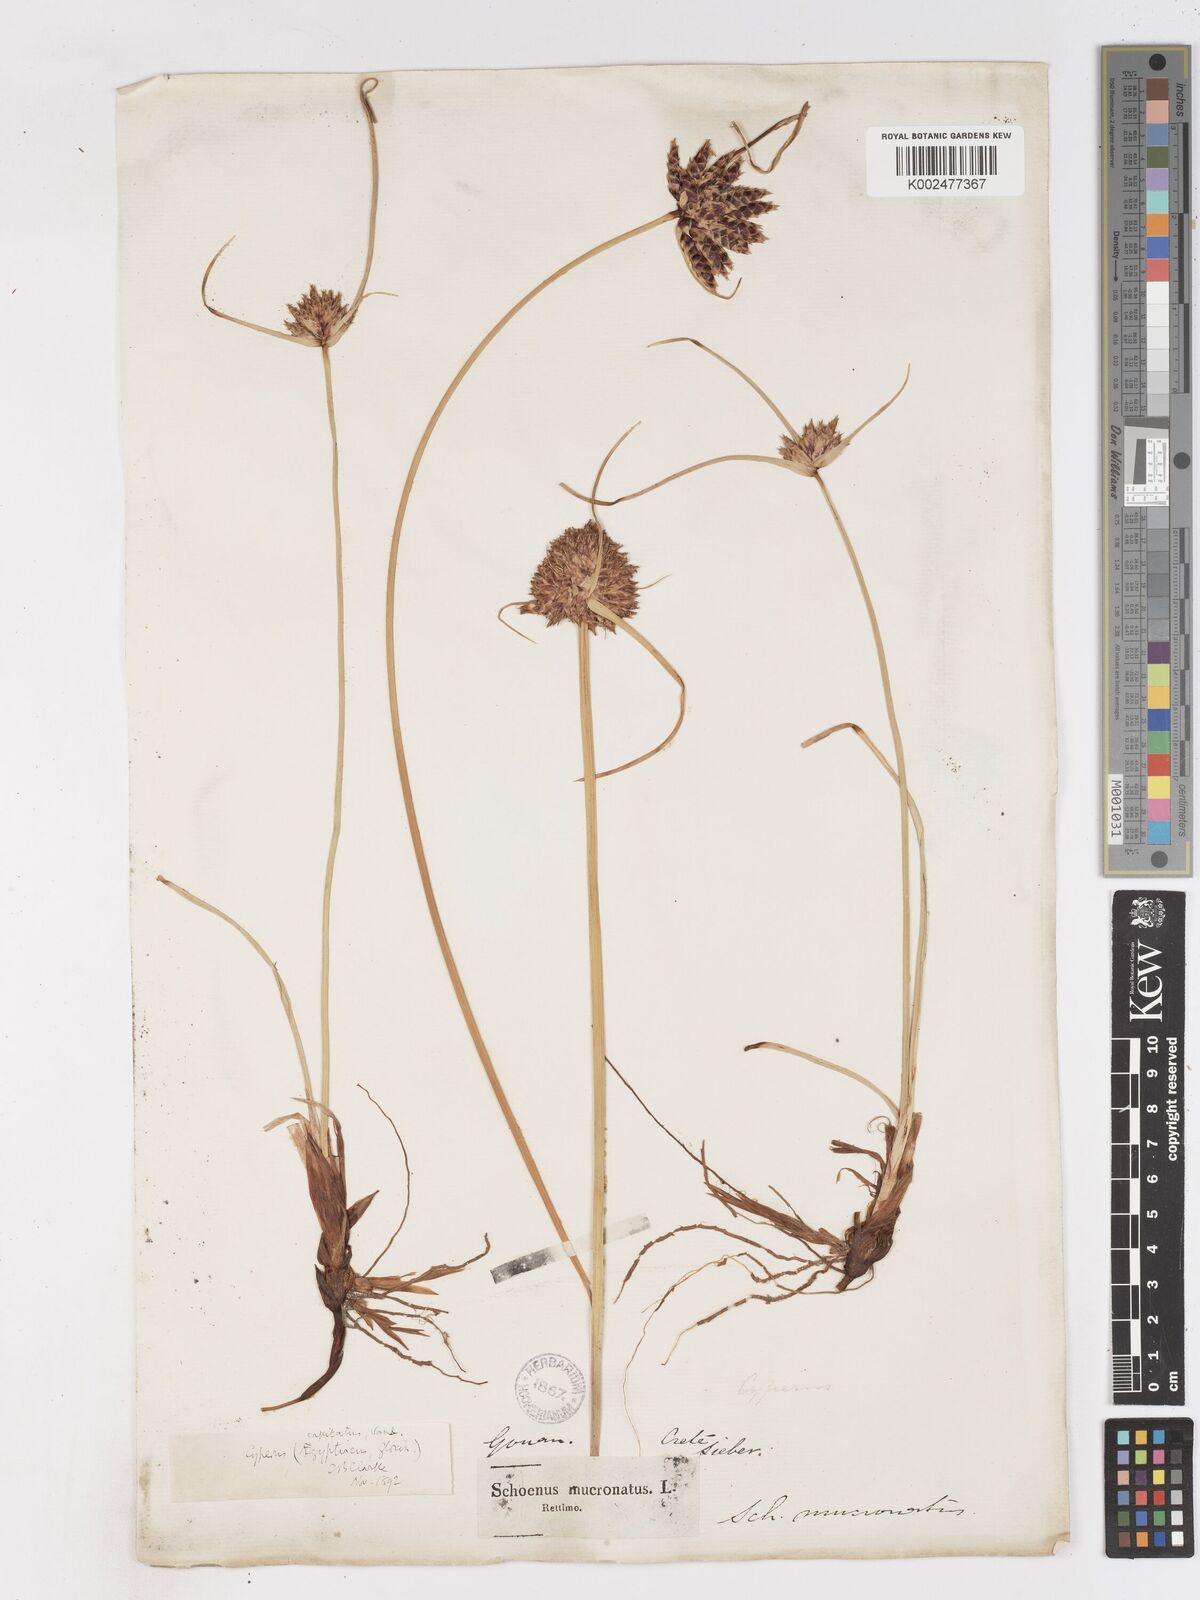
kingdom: Plantae
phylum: Tracheophyta
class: Liliopsida
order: Poales
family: Cyperaceae
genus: Cyperus
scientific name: Cyperus capitatus
